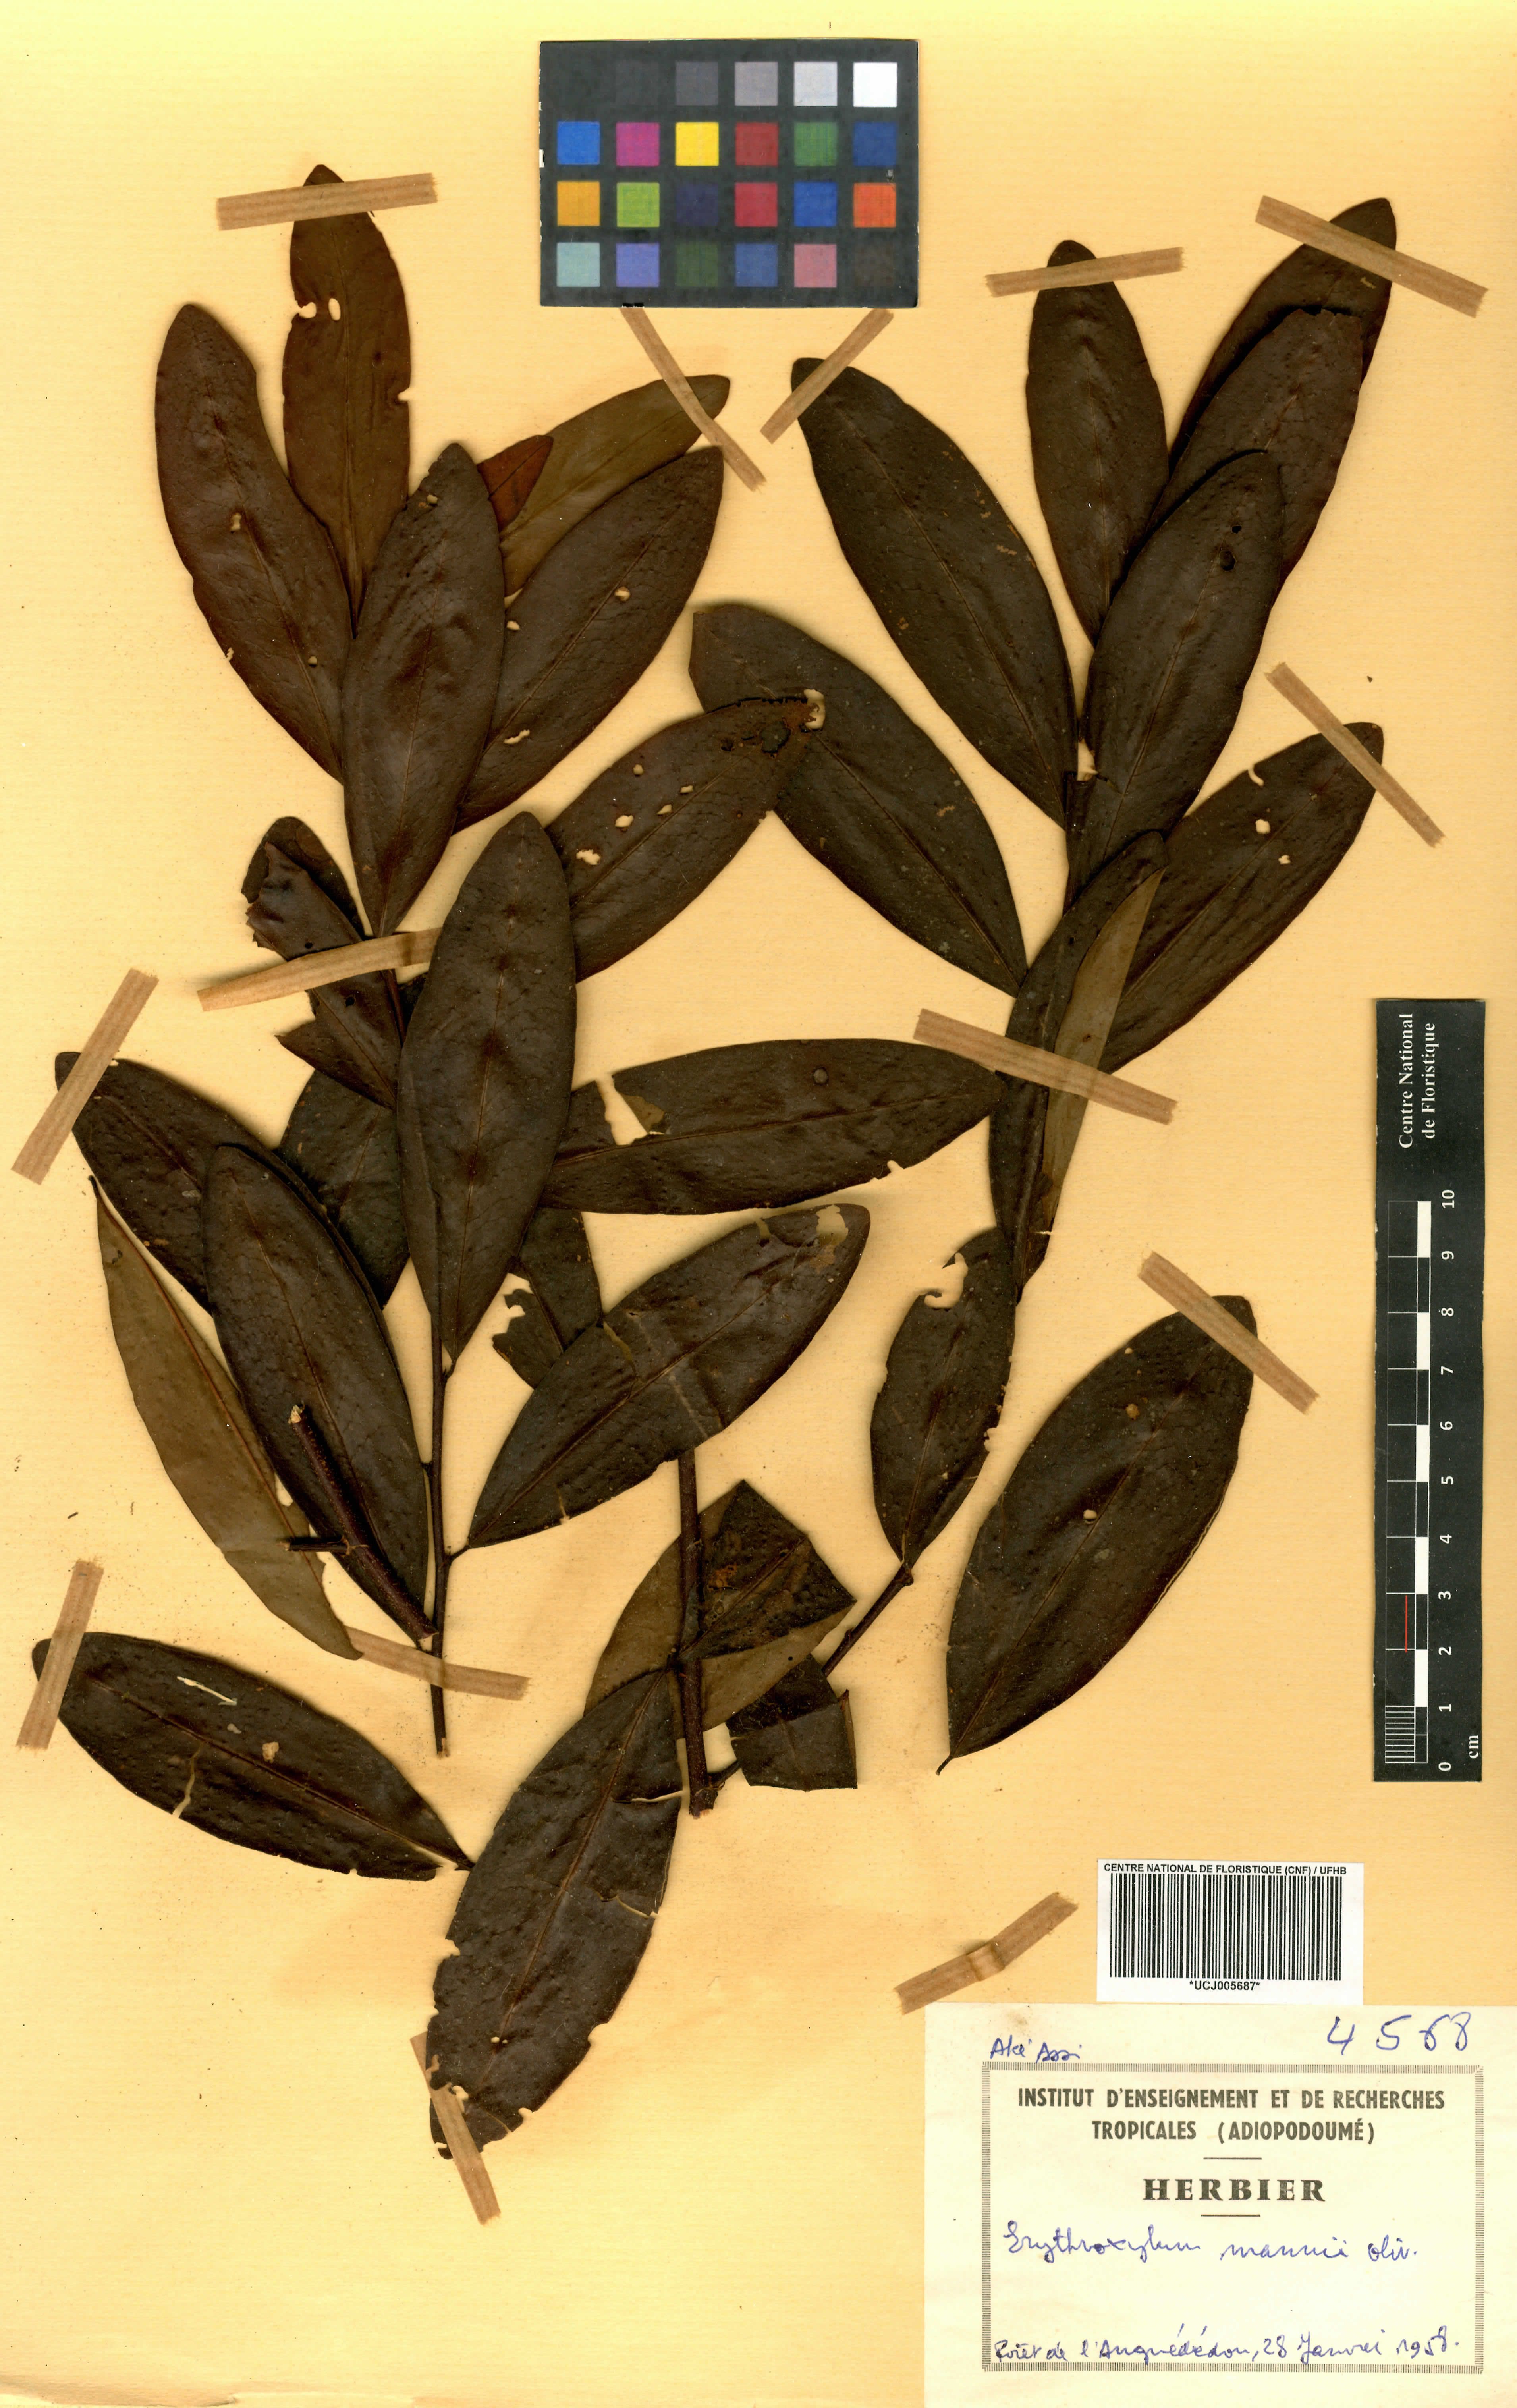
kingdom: Plantae
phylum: Tracheophyta
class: Magnoliopsida
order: Malpighiales
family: Erythroxylaceae
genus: Erythroxylum
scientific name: Erythroxylum mannii
